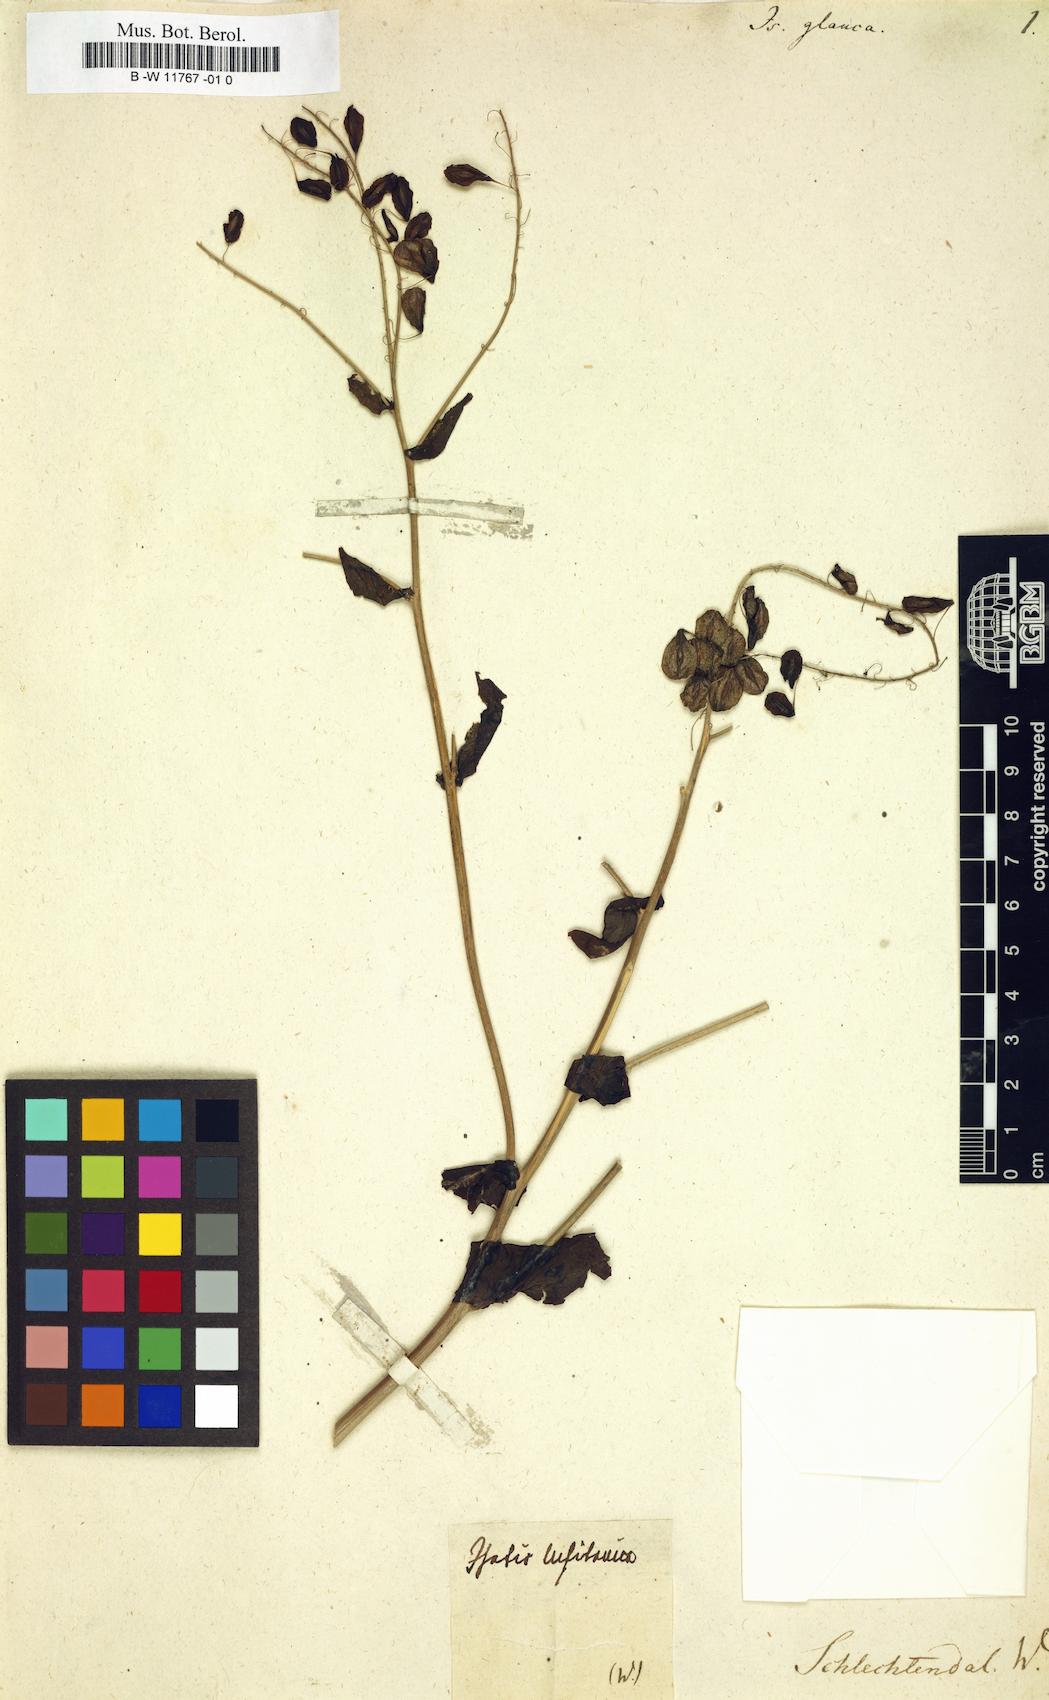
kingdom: Plantae
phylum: Tracheophyta
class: Magnoliopsida
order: Brassicales
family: Brassicaceae
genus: Isatis
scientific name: Isatis glauca
